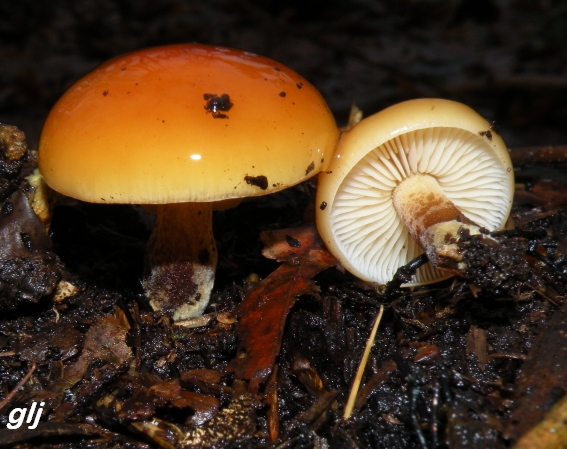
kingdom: Fungi
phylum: Basidiomycota
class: Agaricomycetes
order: Agaricales
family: Physalacriaceae
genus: Flammulina
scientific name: Flammulina velutipes
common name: gul fløjlsfod
